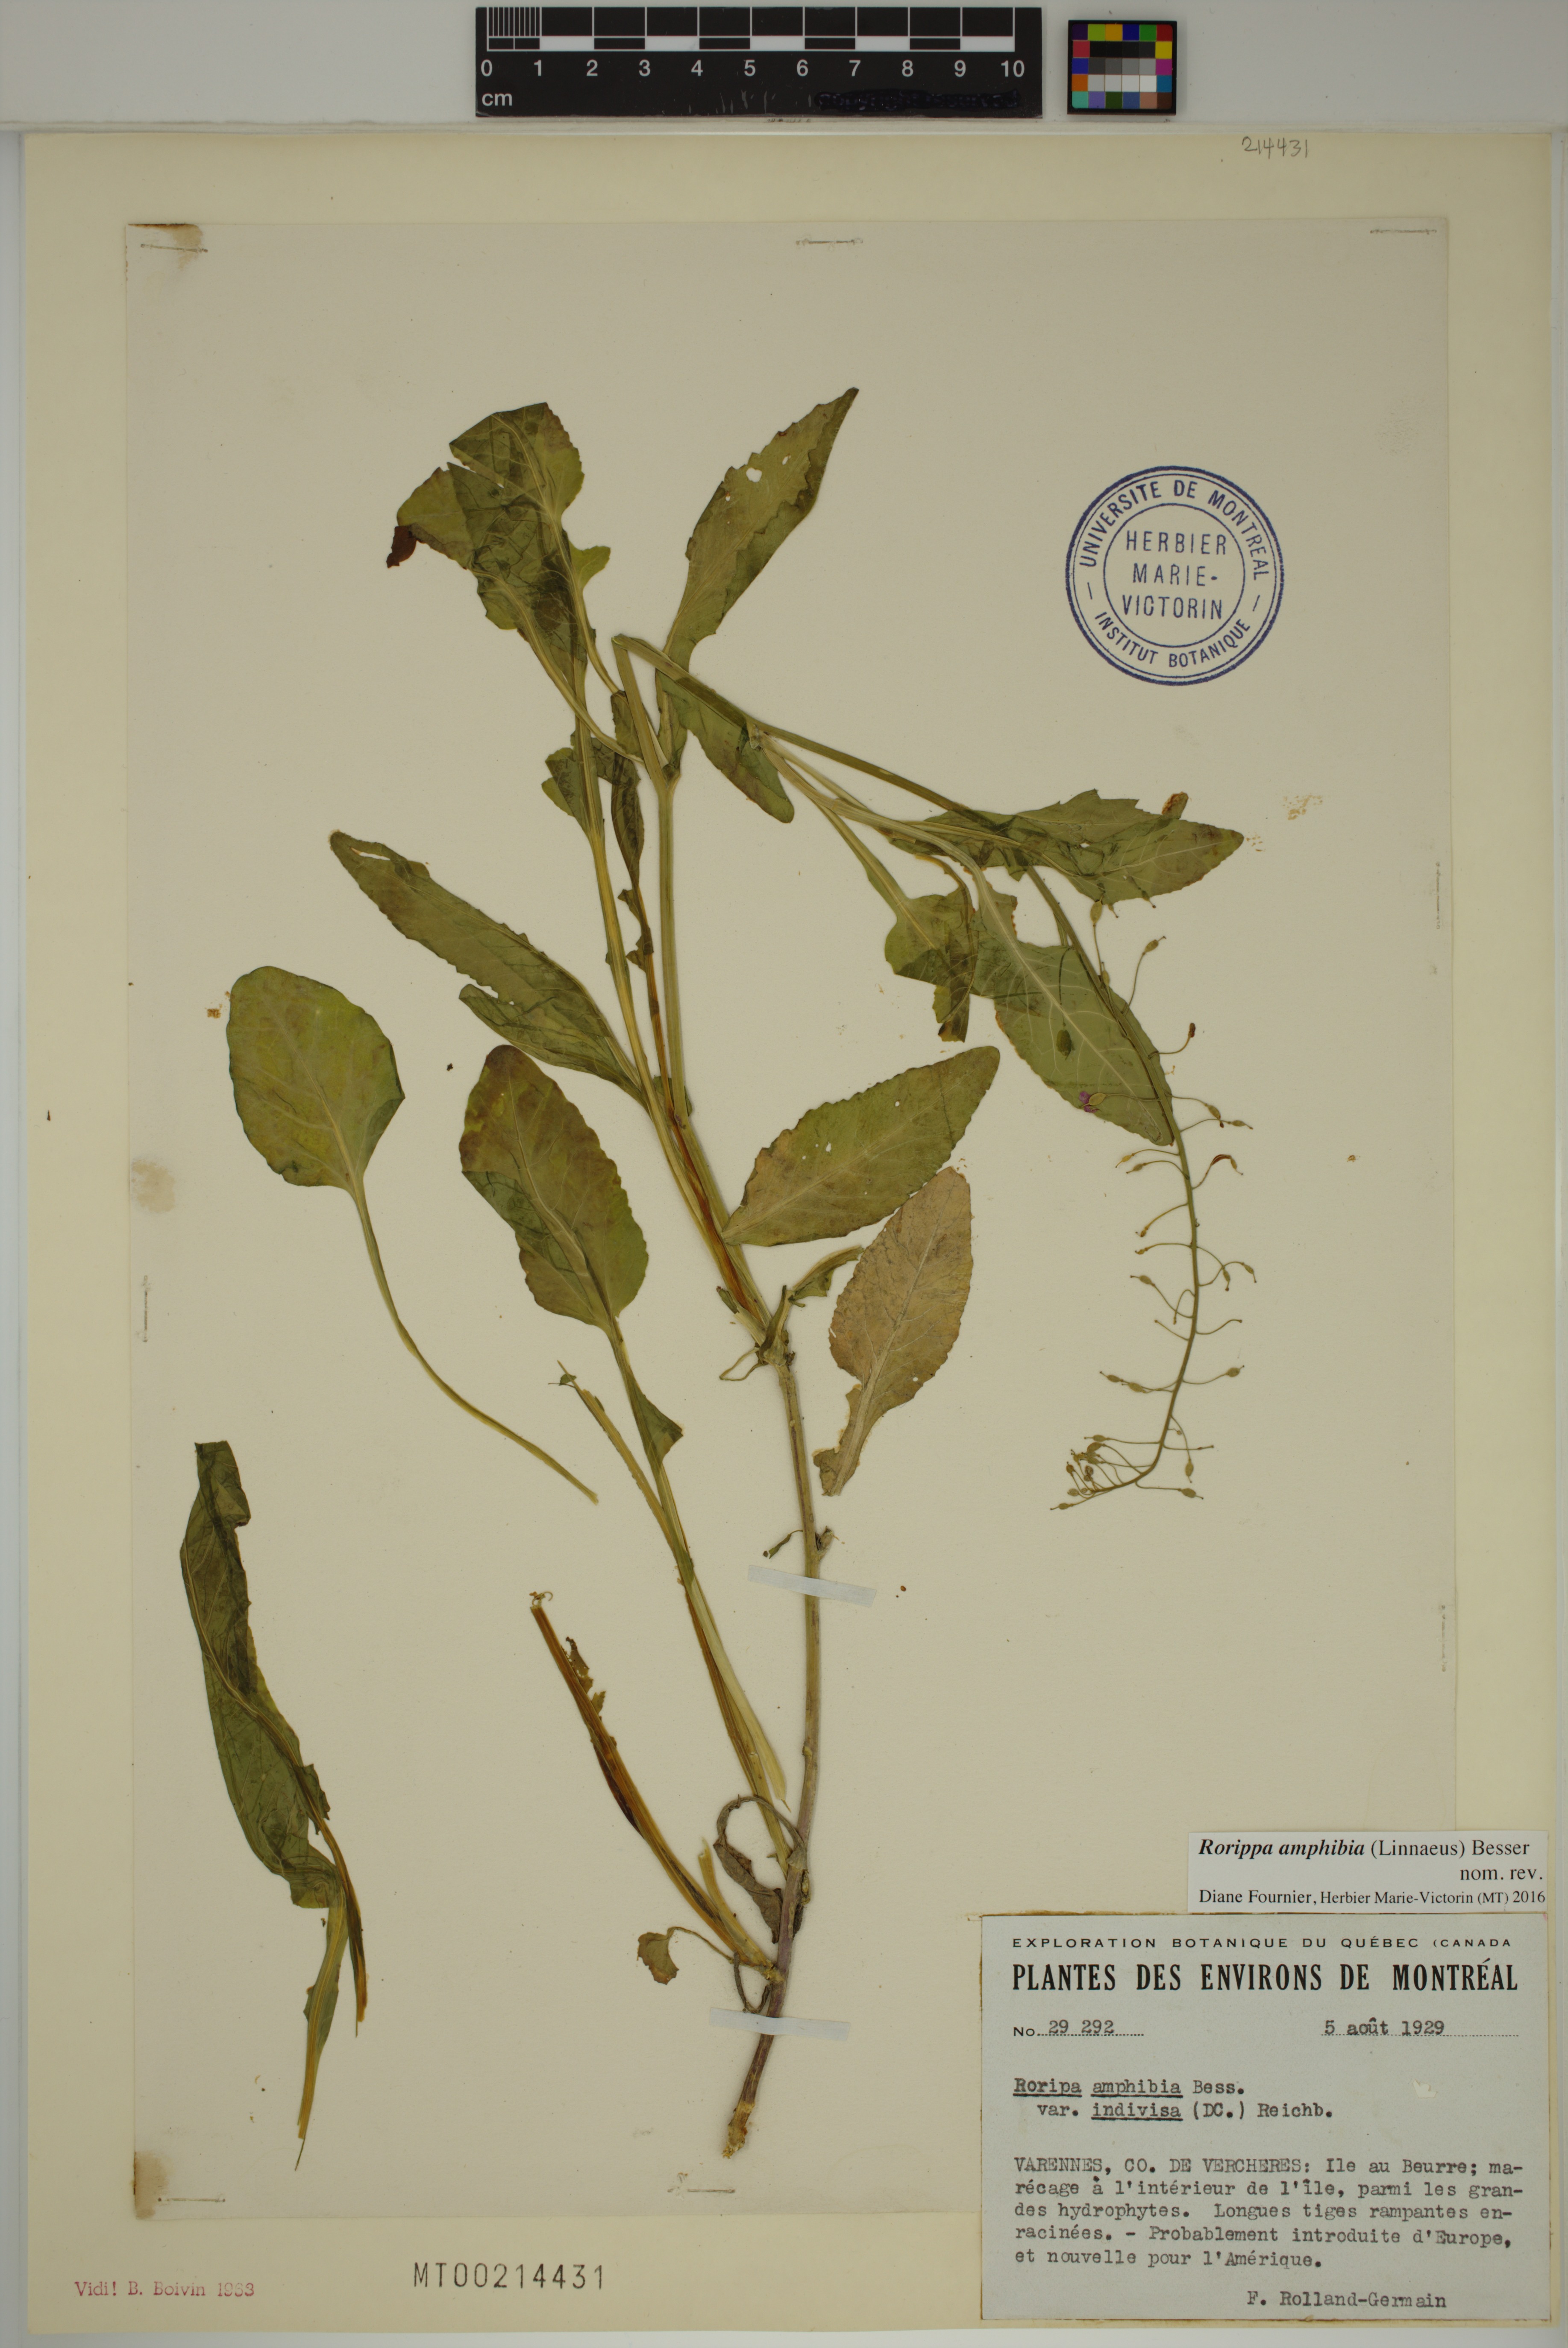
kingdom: Plantae
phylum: Tracheophyta
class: Magnoliopsida
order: Brassicales
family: Brassicaceae
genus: Rorippa
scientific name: Rorippa amphibia
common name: Great yellow-cress
